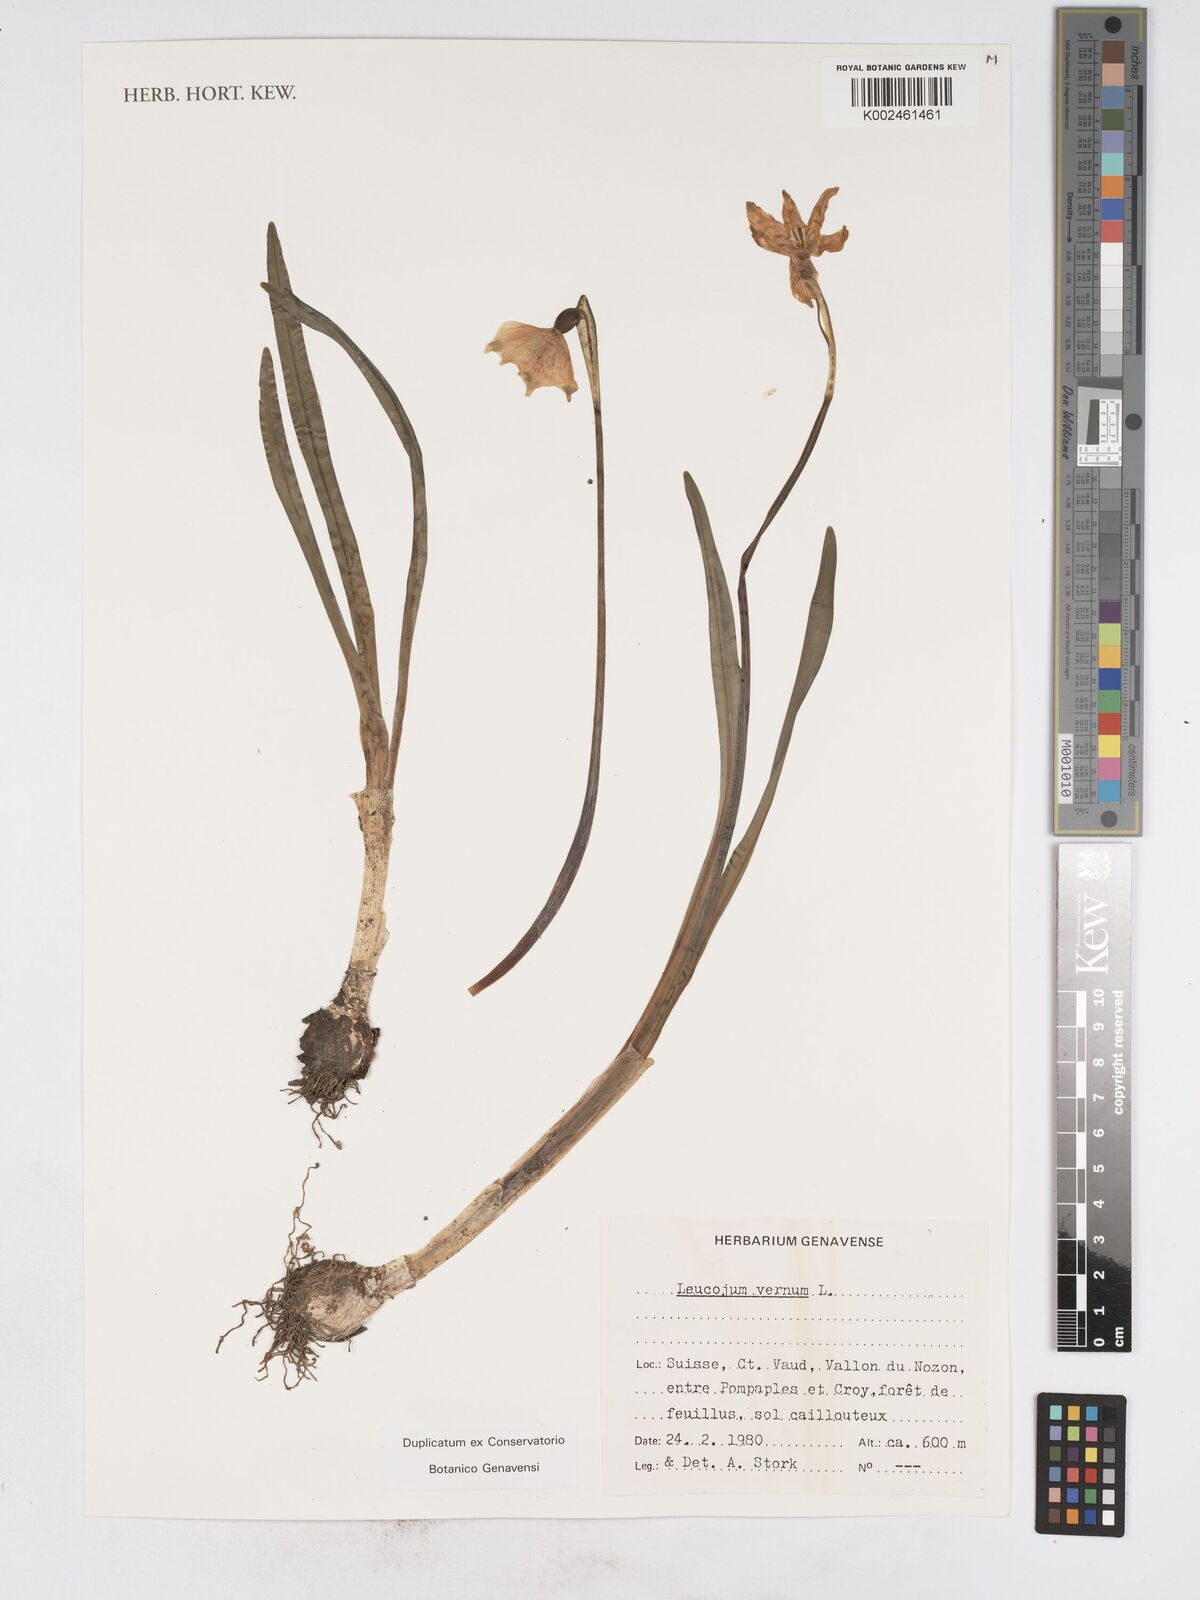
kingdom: Plantae
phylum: Tracheophyta
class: Liliopsida
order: Asparagales
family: Amaryllidaceae
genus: Leucojum
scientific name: Leucojum vernum
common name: Spring snowflake
